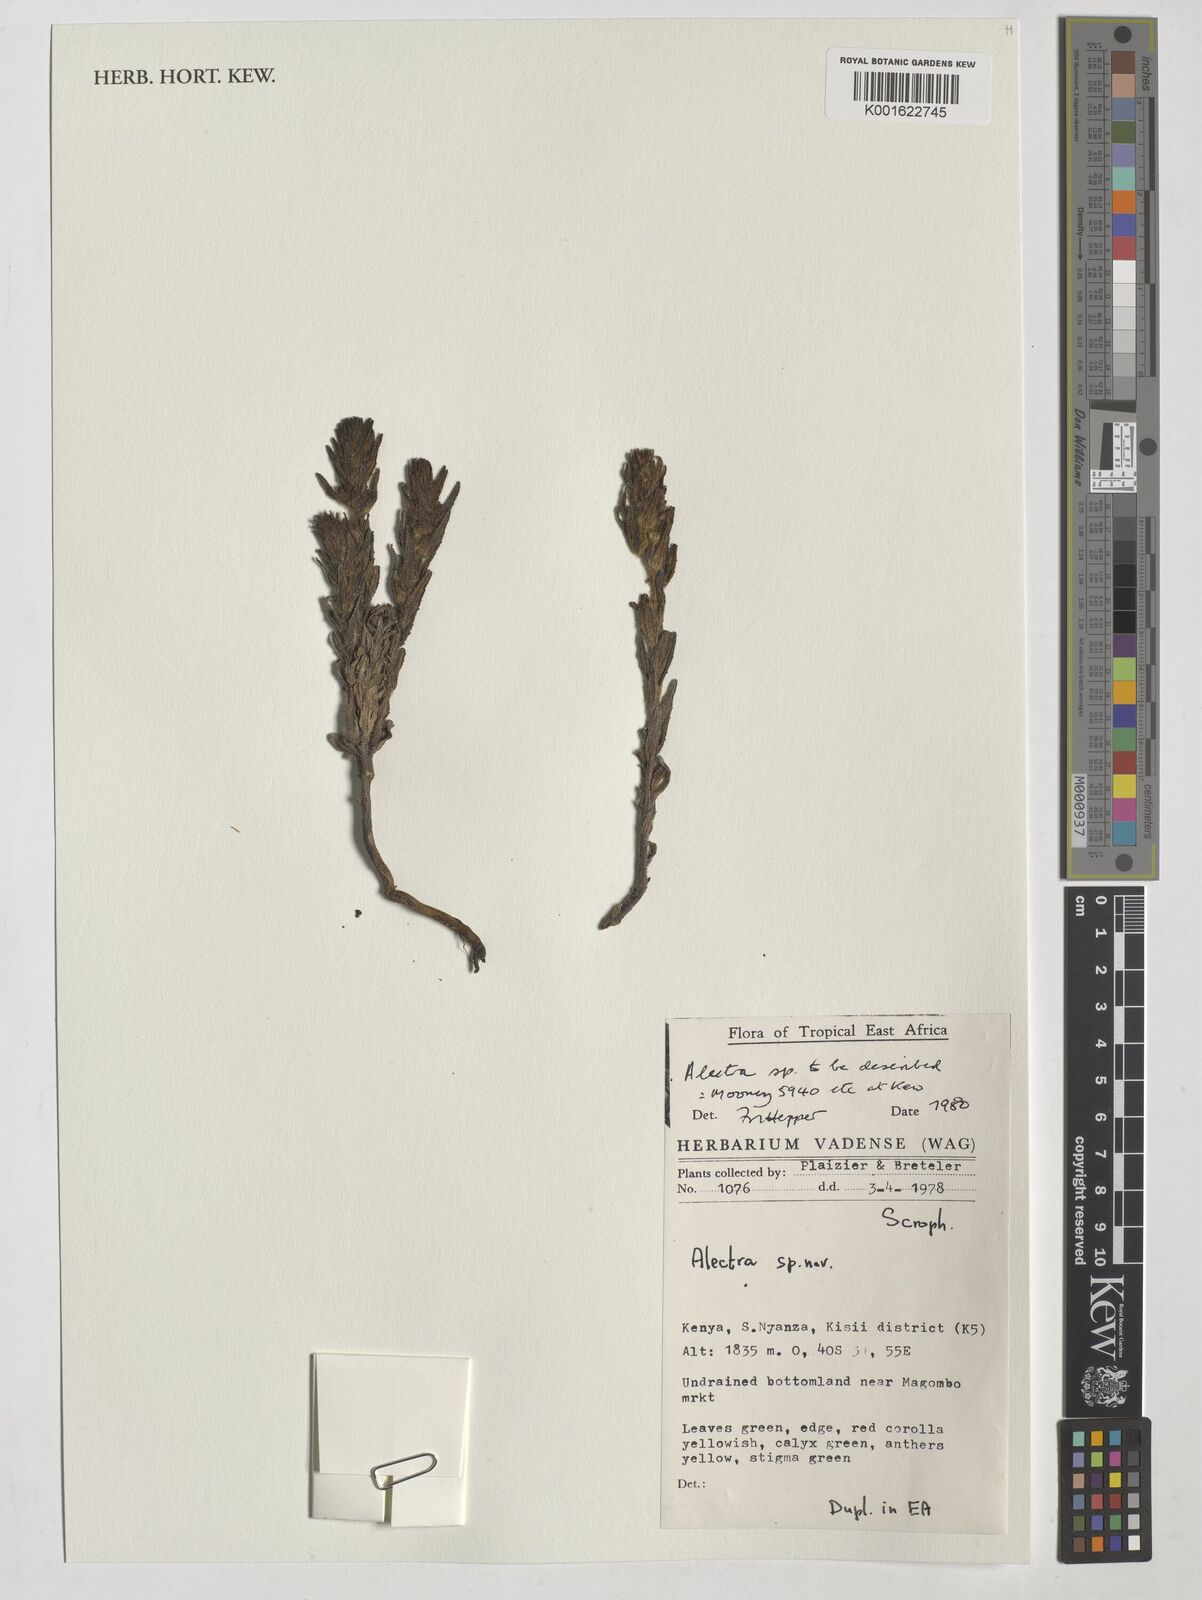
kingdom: Plantae
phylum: Tracheophyta
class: Magnoliopsida
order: Lamiales
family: Orobanchaceae
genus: Alectra
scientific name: Alectra
